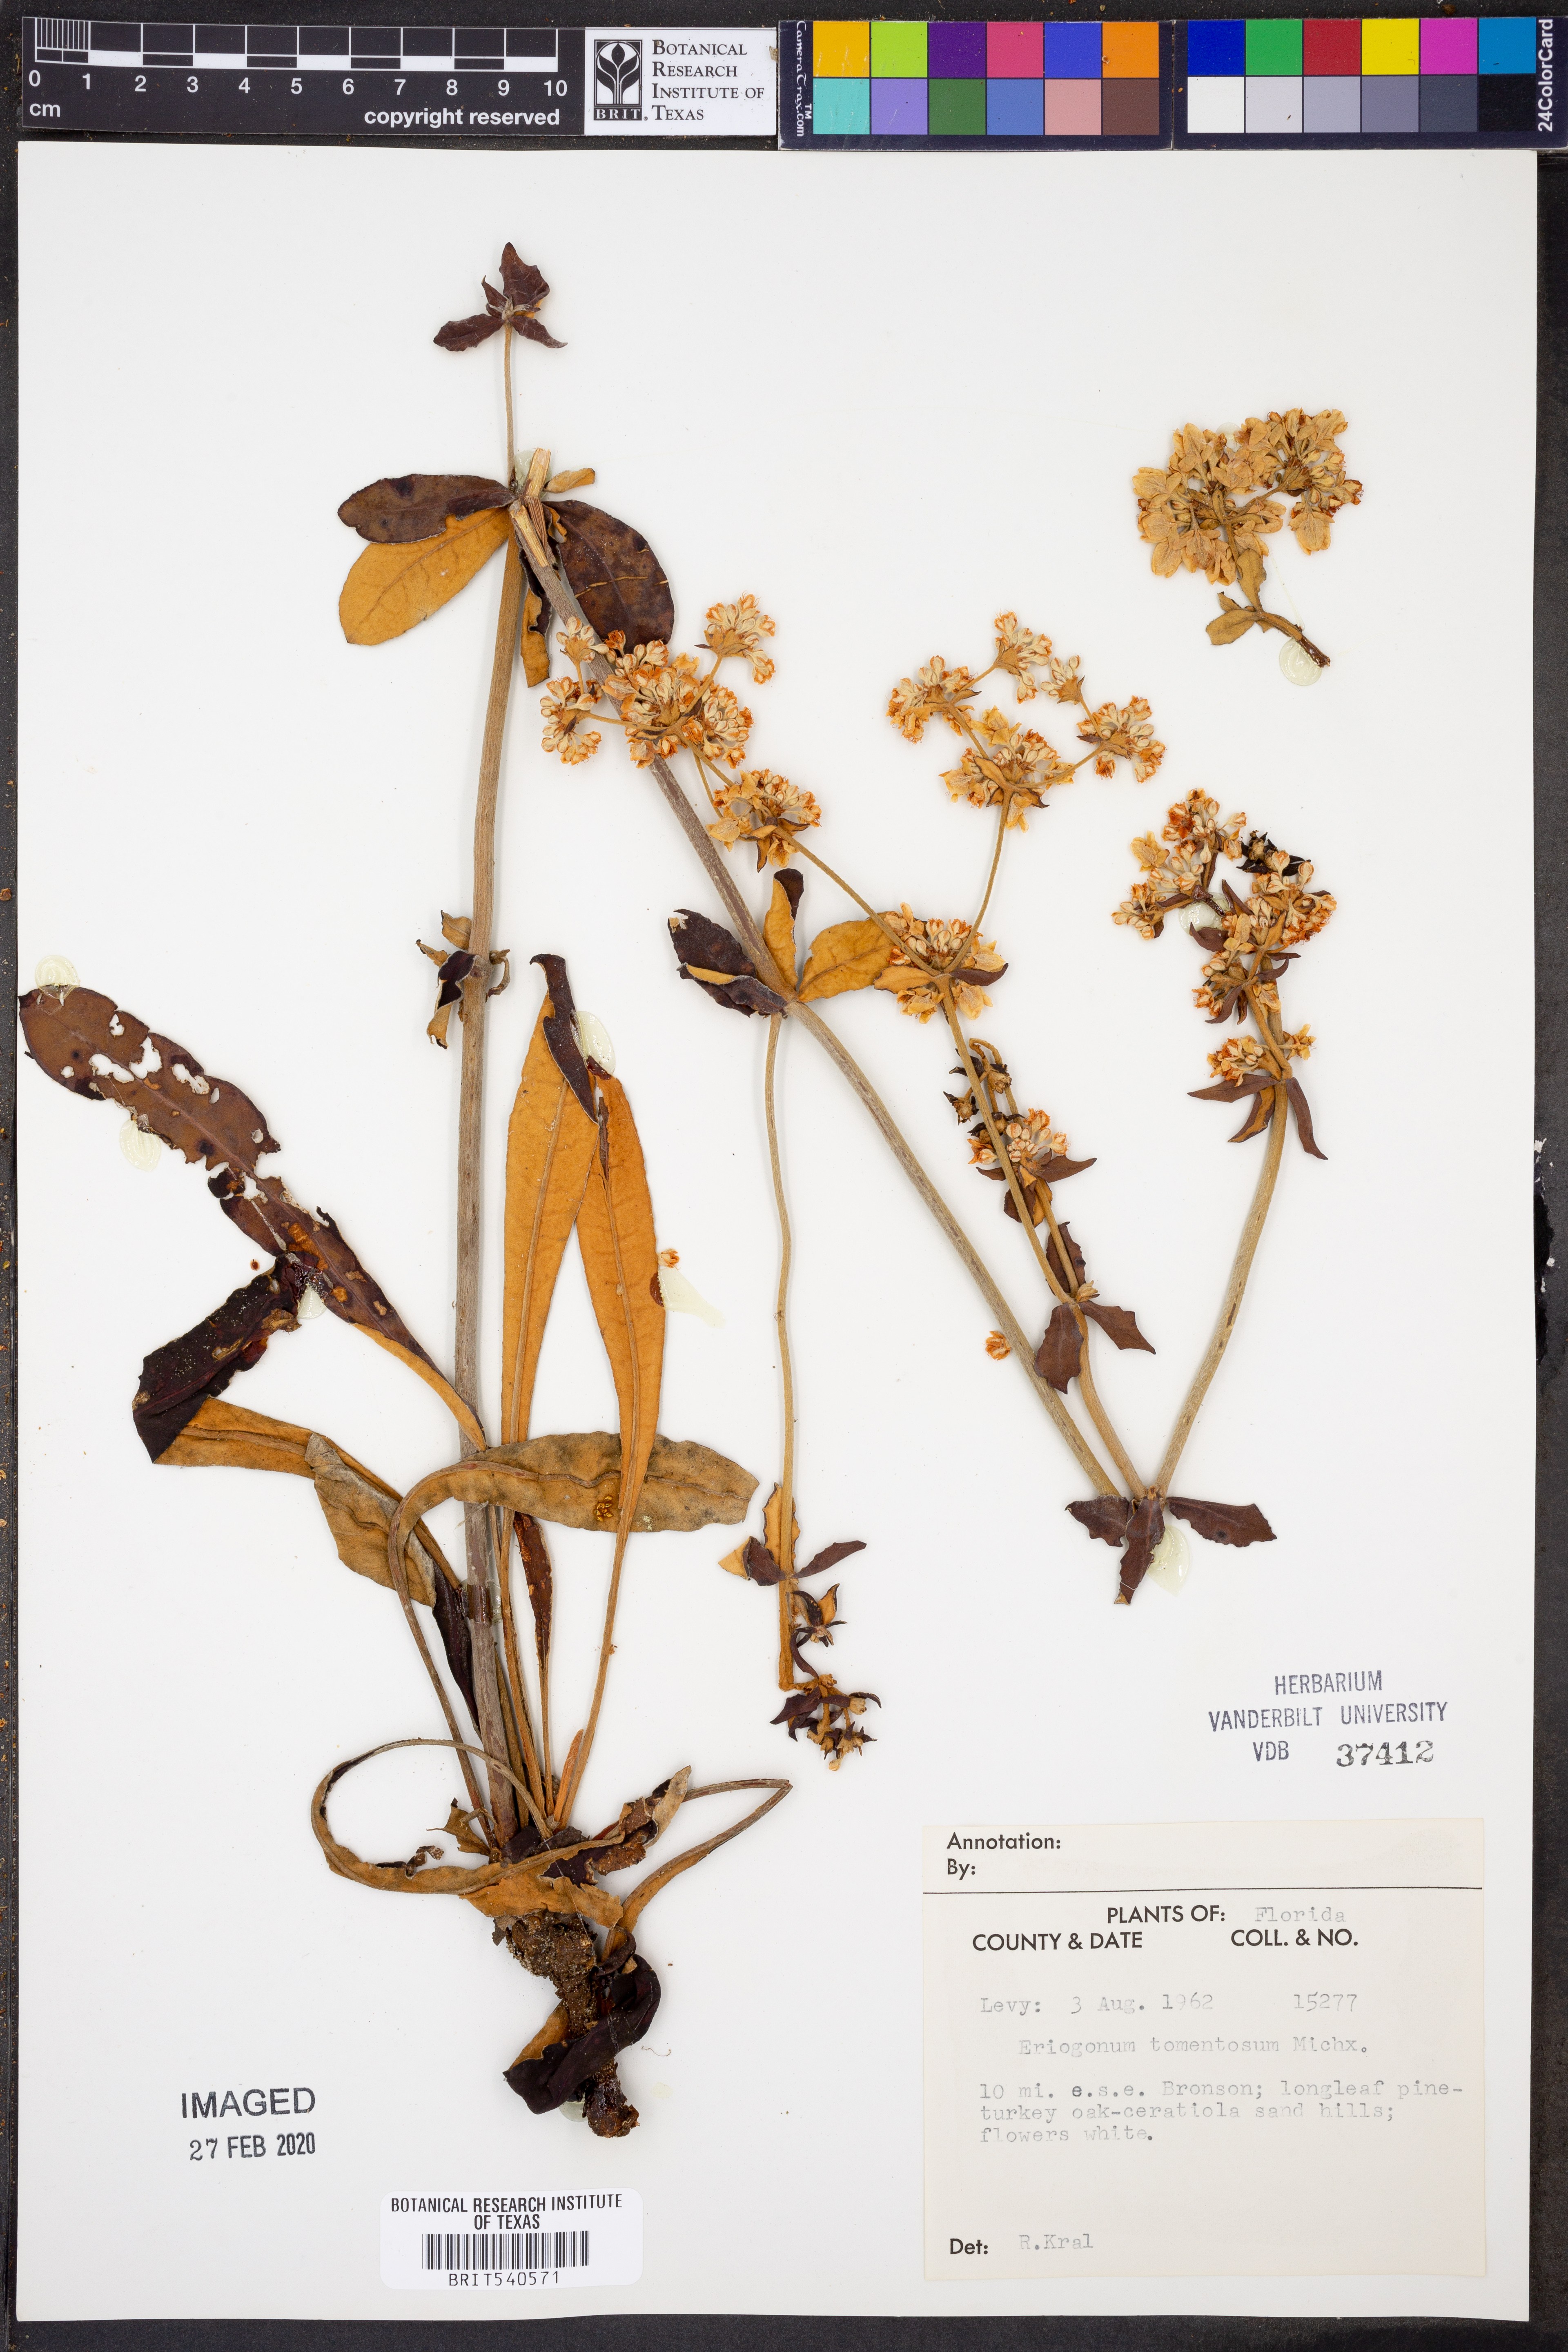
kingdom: Plantae
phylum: Tracheophyta
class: Magnoliopsida
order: Caryophyllales
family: Polygonaceae
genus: Eriogonum
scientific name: Eriogonum tomentosum
